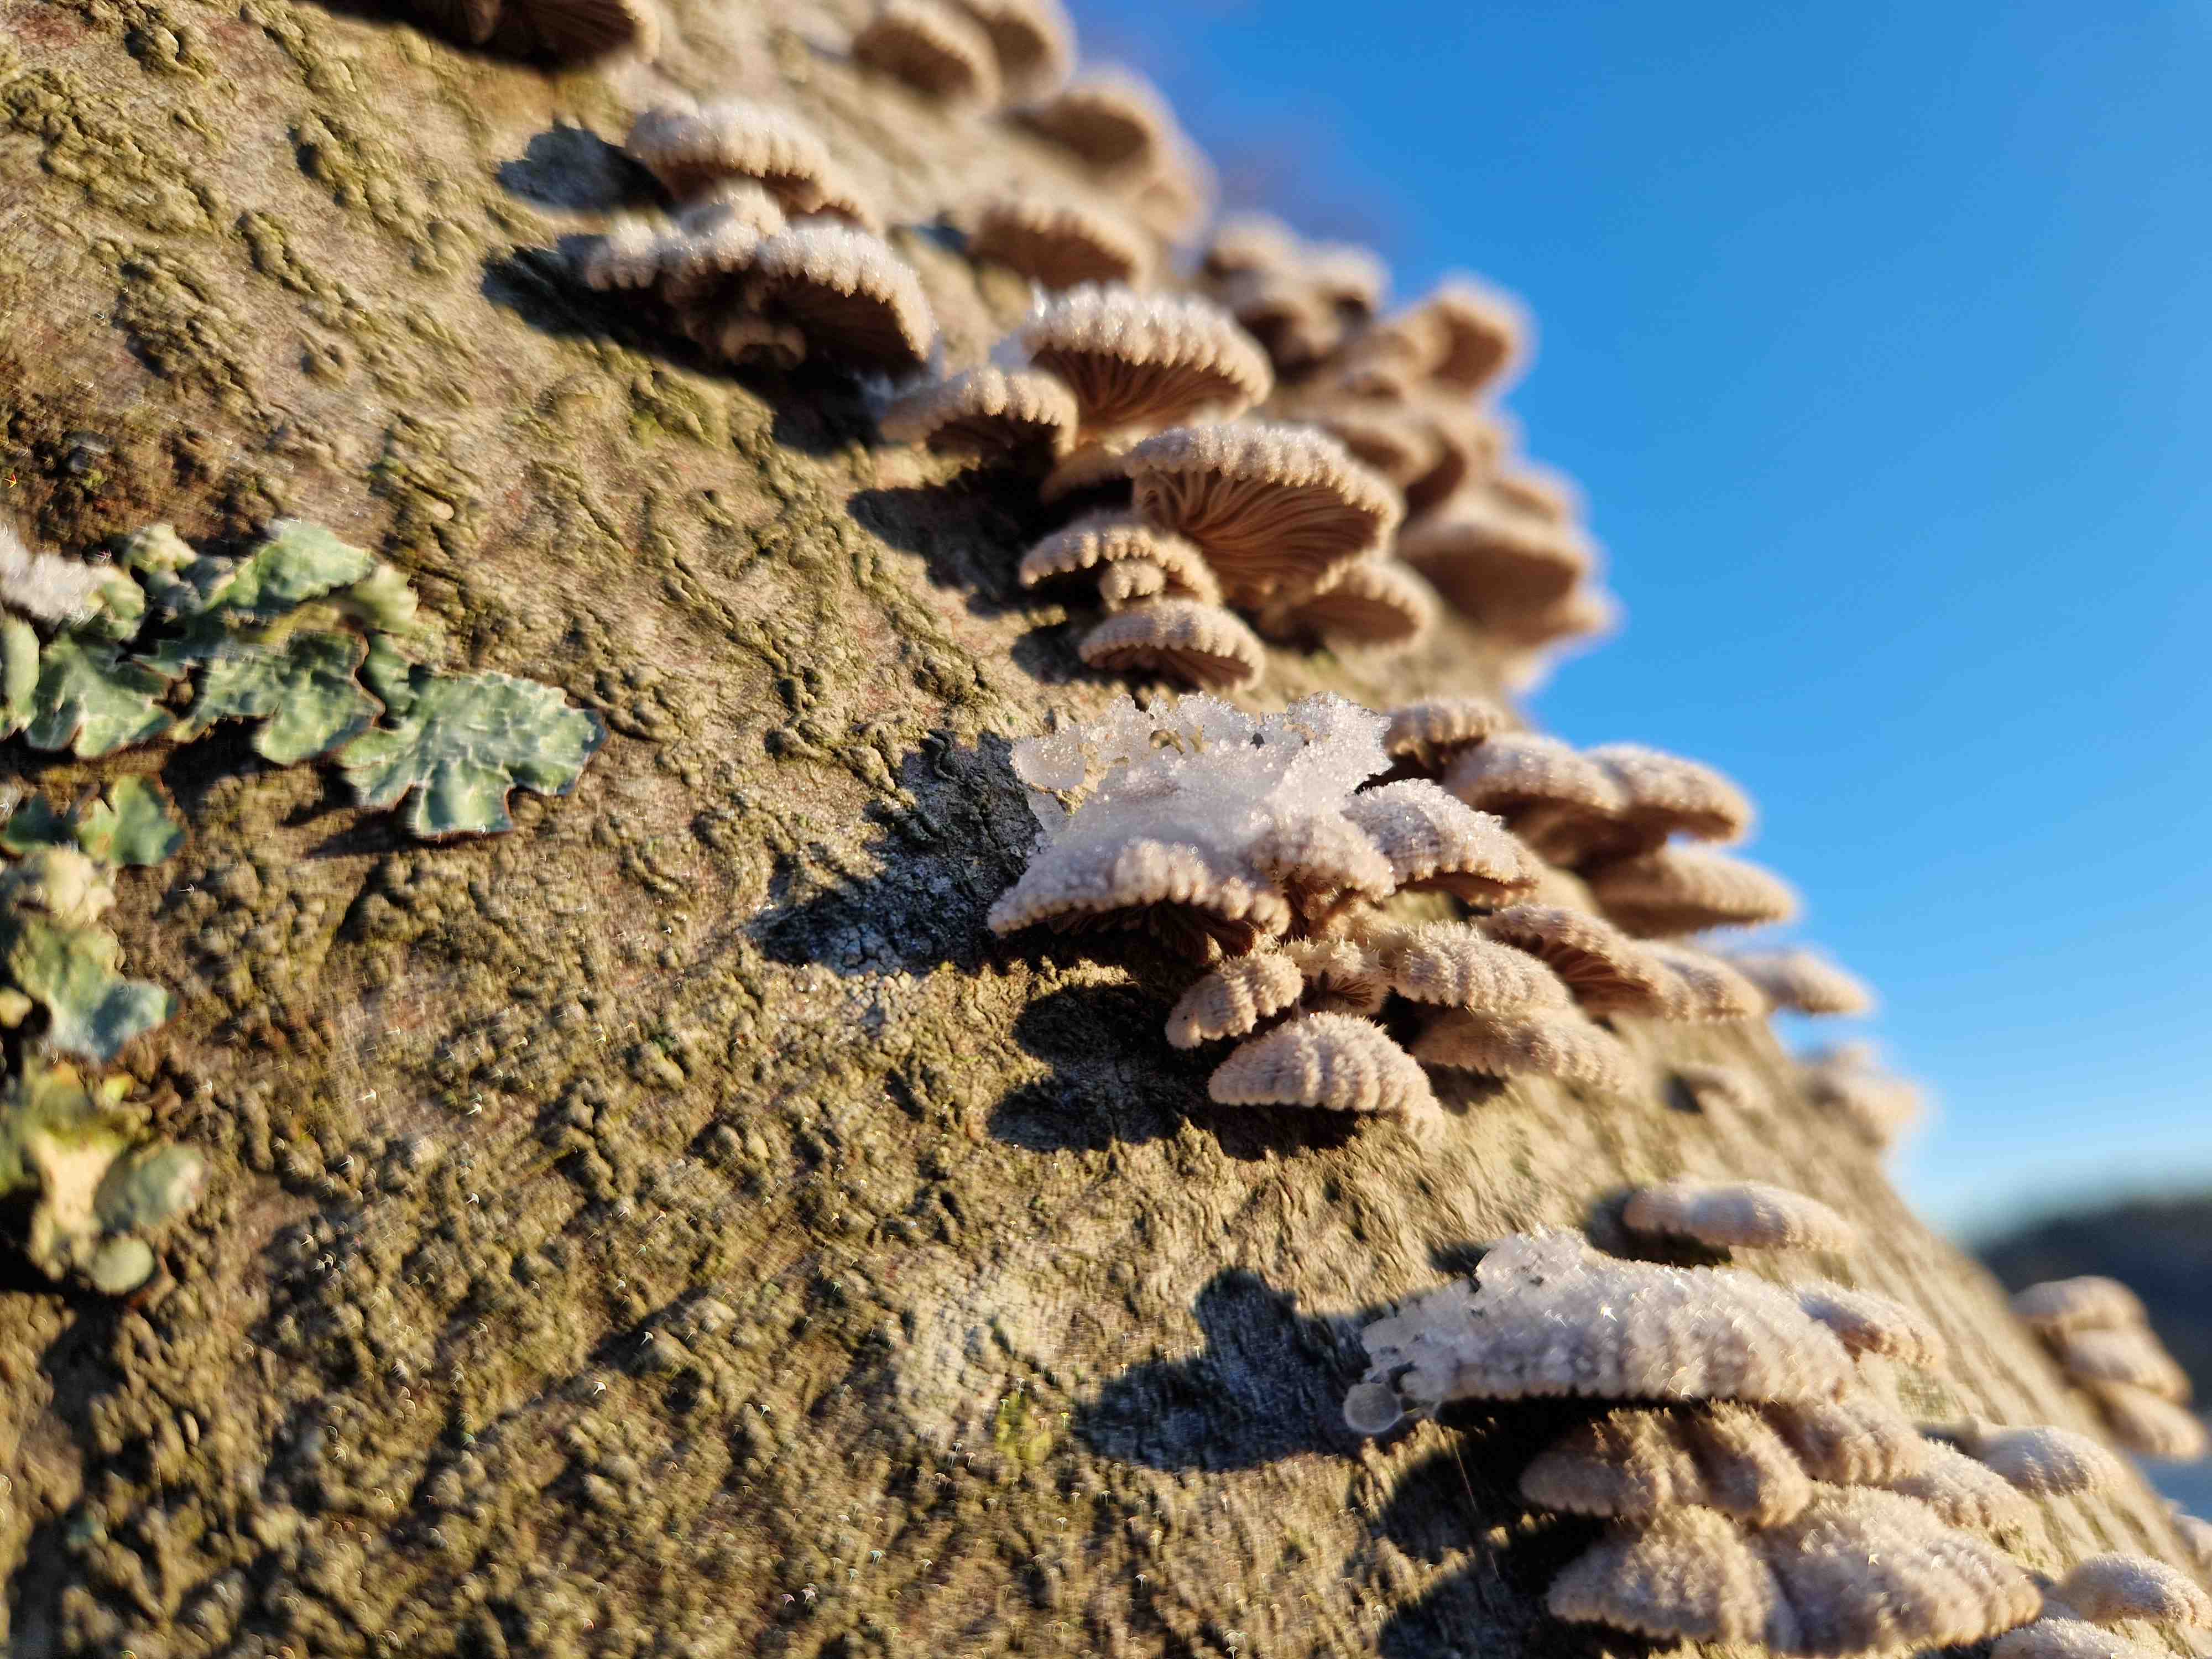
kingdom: Fungi
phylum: Basidiomycota
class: Agaricomycetes
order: Agaricales
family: Schizophyllaceae
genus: Schizophyllum
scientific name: Schizophyllum commune
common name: kløvblad
